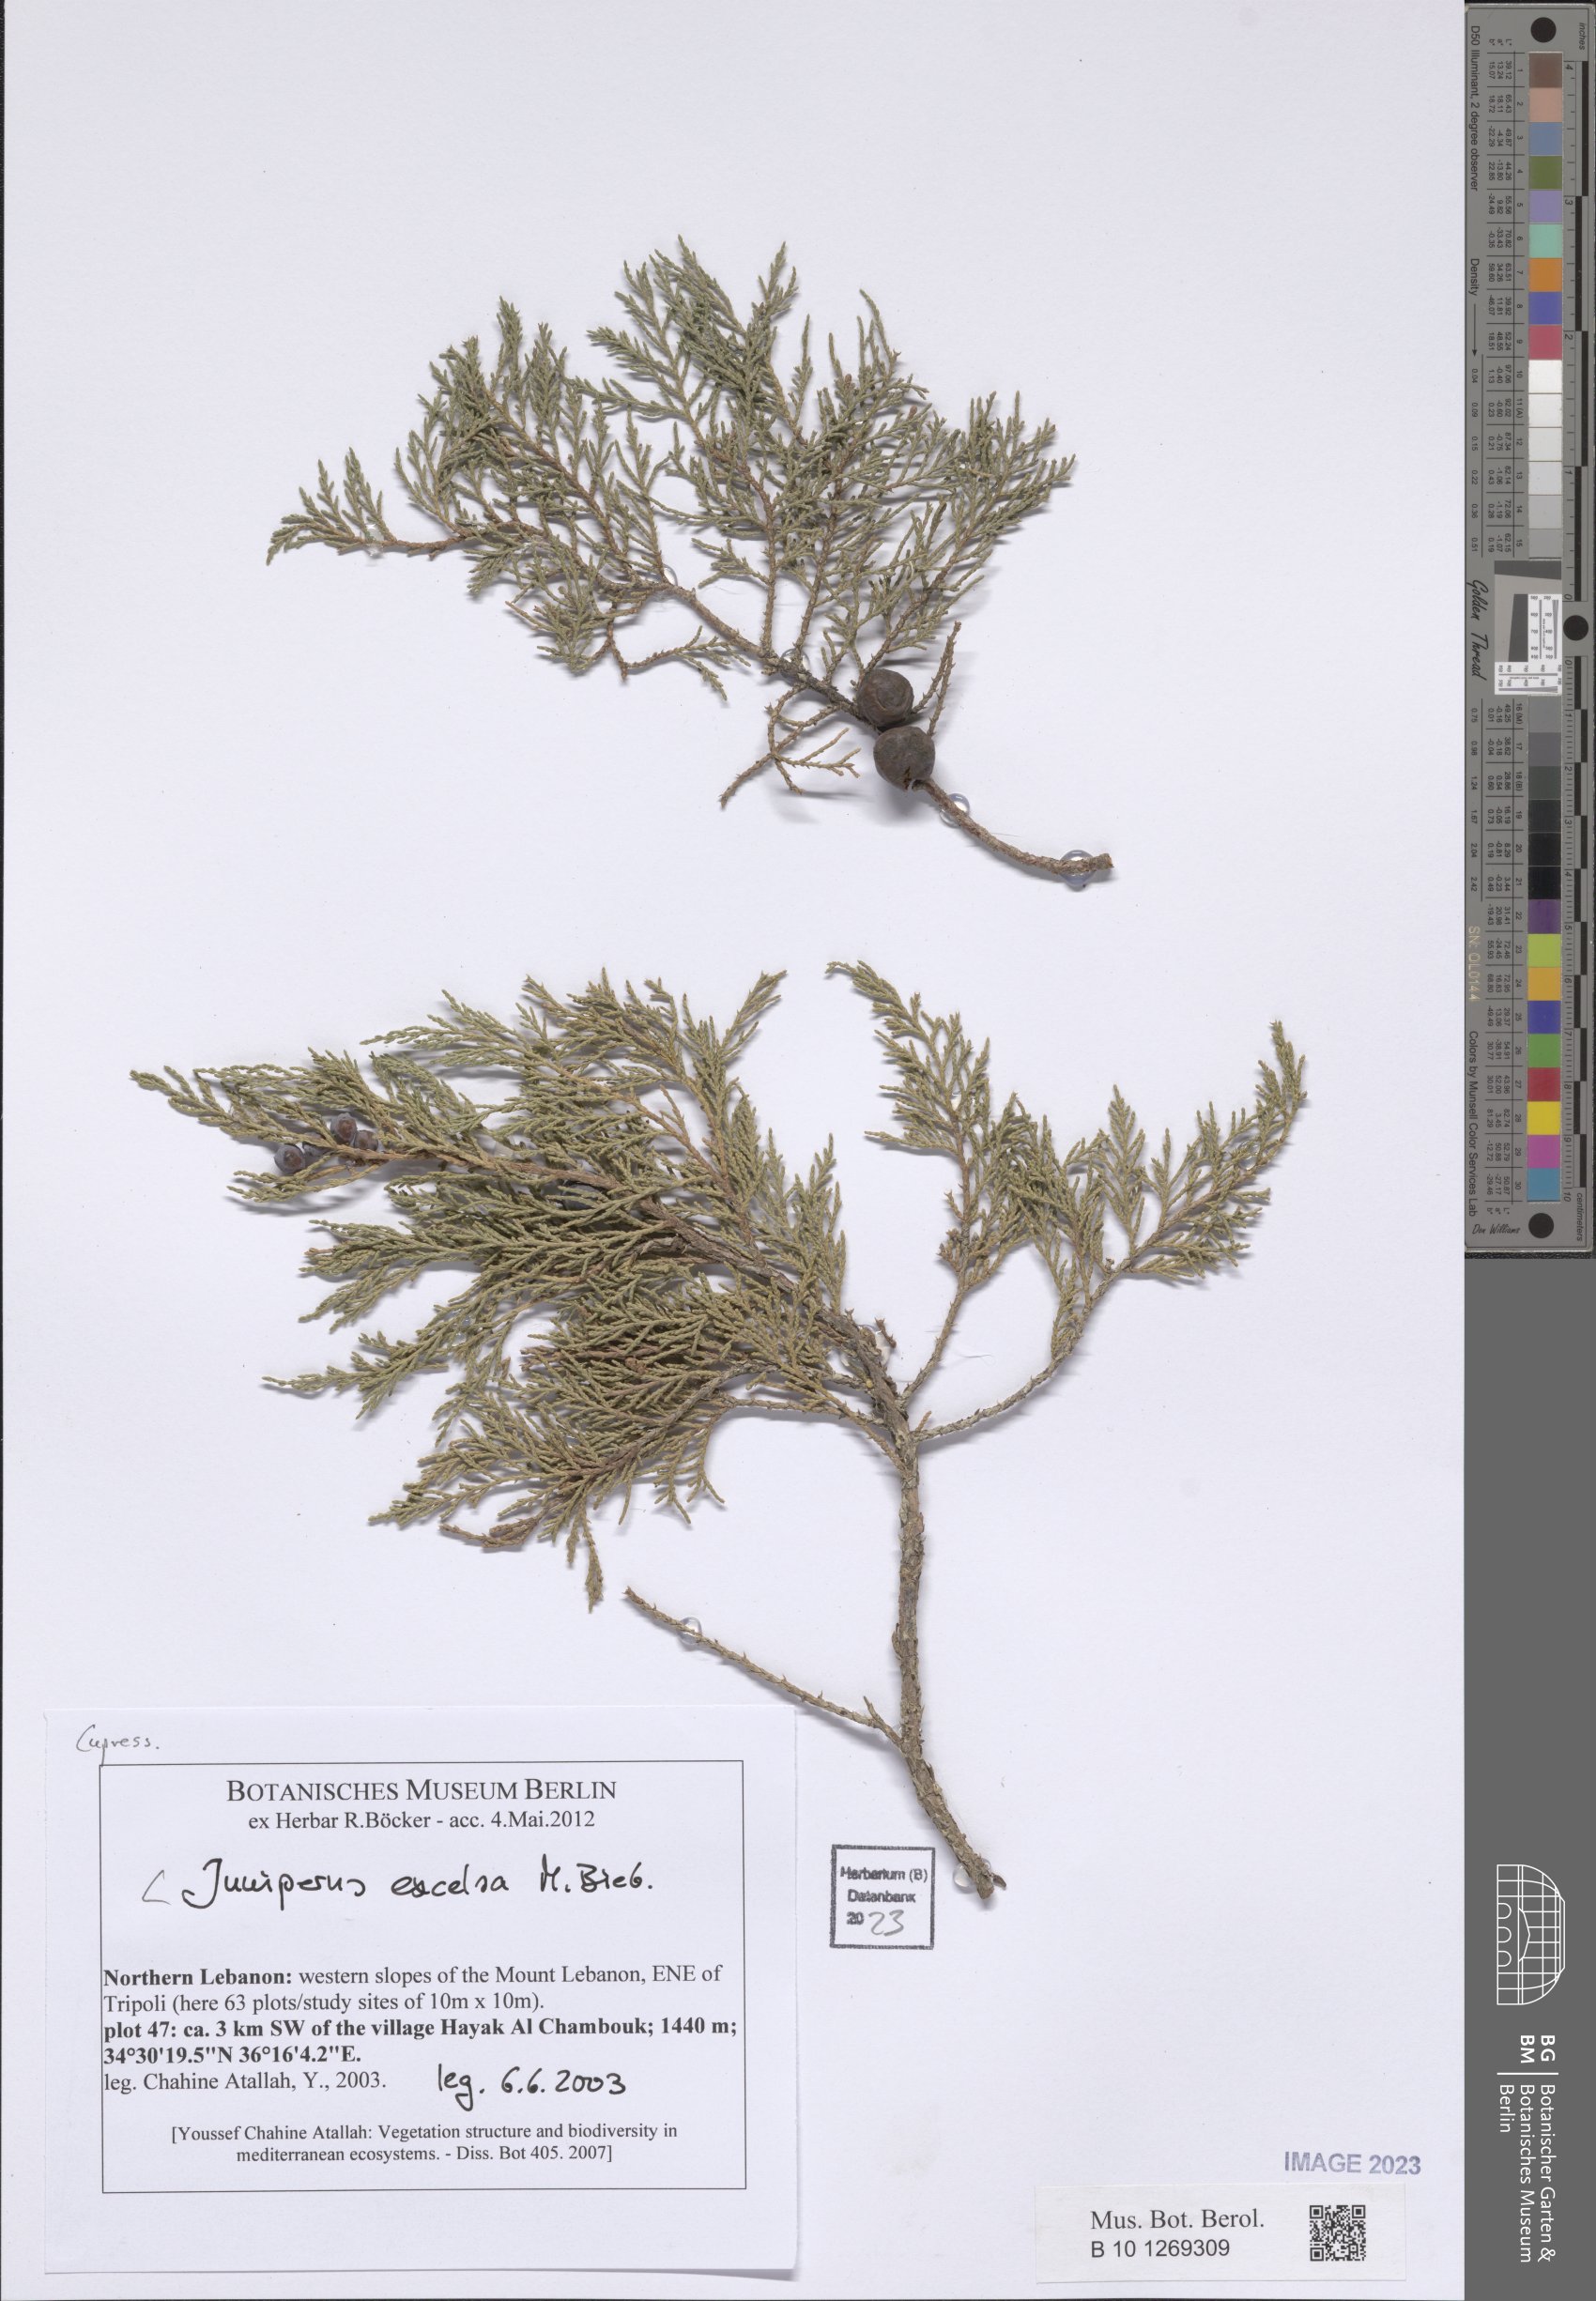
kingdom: Plantae
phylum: Tracheophyta
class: Pinopsida
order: Pinales
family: Cupressaceae
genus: Juniperus
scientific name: Juniperus excelsa
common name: Crimean juniper
